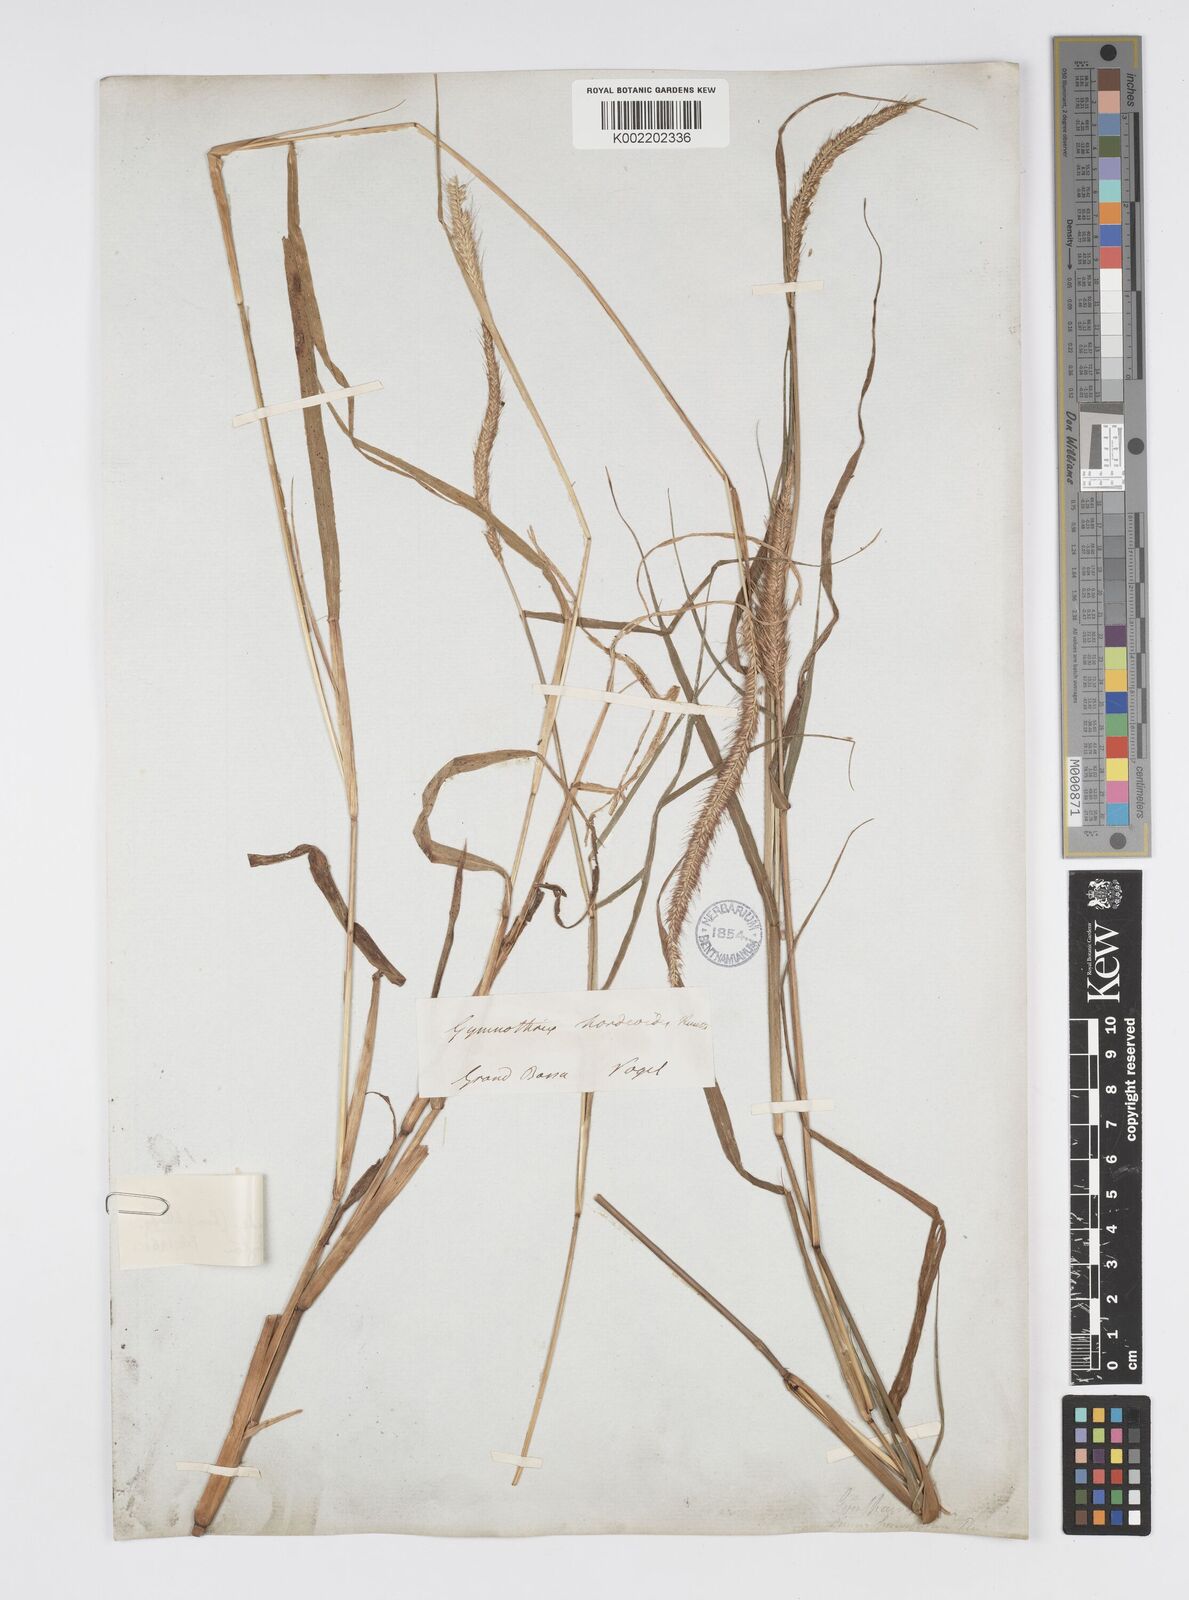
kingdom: Plantae
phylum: Tracheophyta
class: Liliopsida
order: Poales
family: Poaceae
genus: Cenchrus
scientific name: Cenchrus hordeoides
